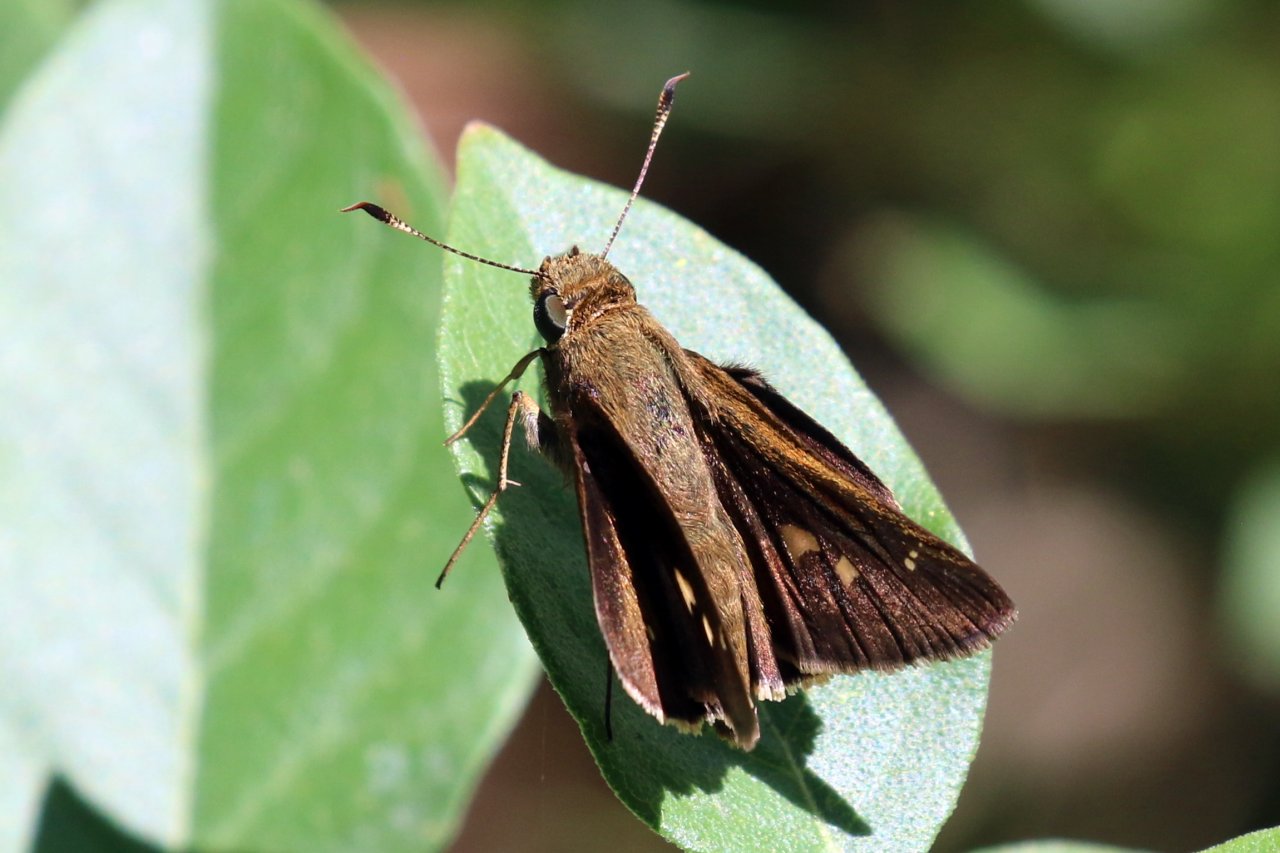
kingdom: Animalia
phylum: Arthropoda
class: Insecta
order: Lepidoptera
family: Hesperiidae
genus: Decinea
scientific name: Decinea percosius
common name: Double-dotted Skipper
